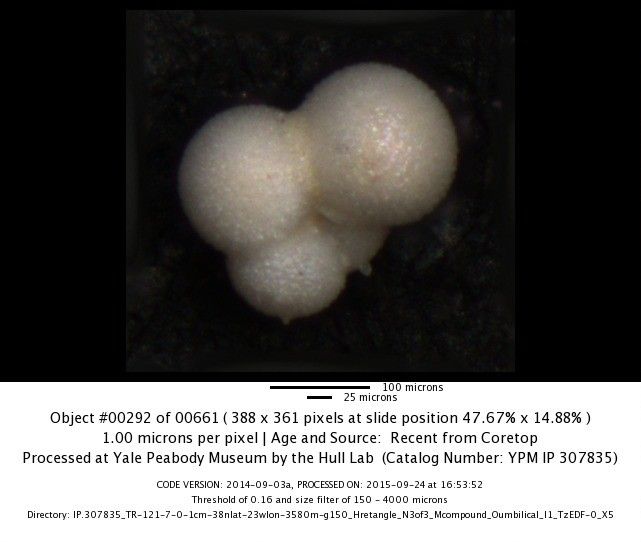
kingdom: Chromista
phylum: Foraminifera
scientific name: Foraminifera
